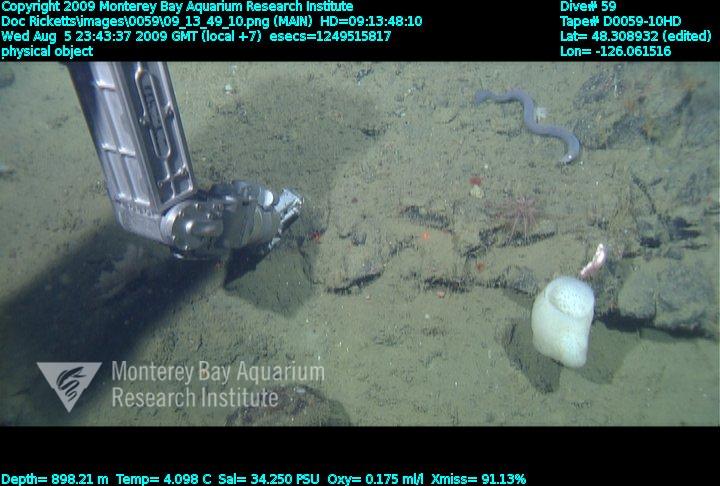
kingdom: Animalia
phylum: Porifera
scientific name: Porifera
